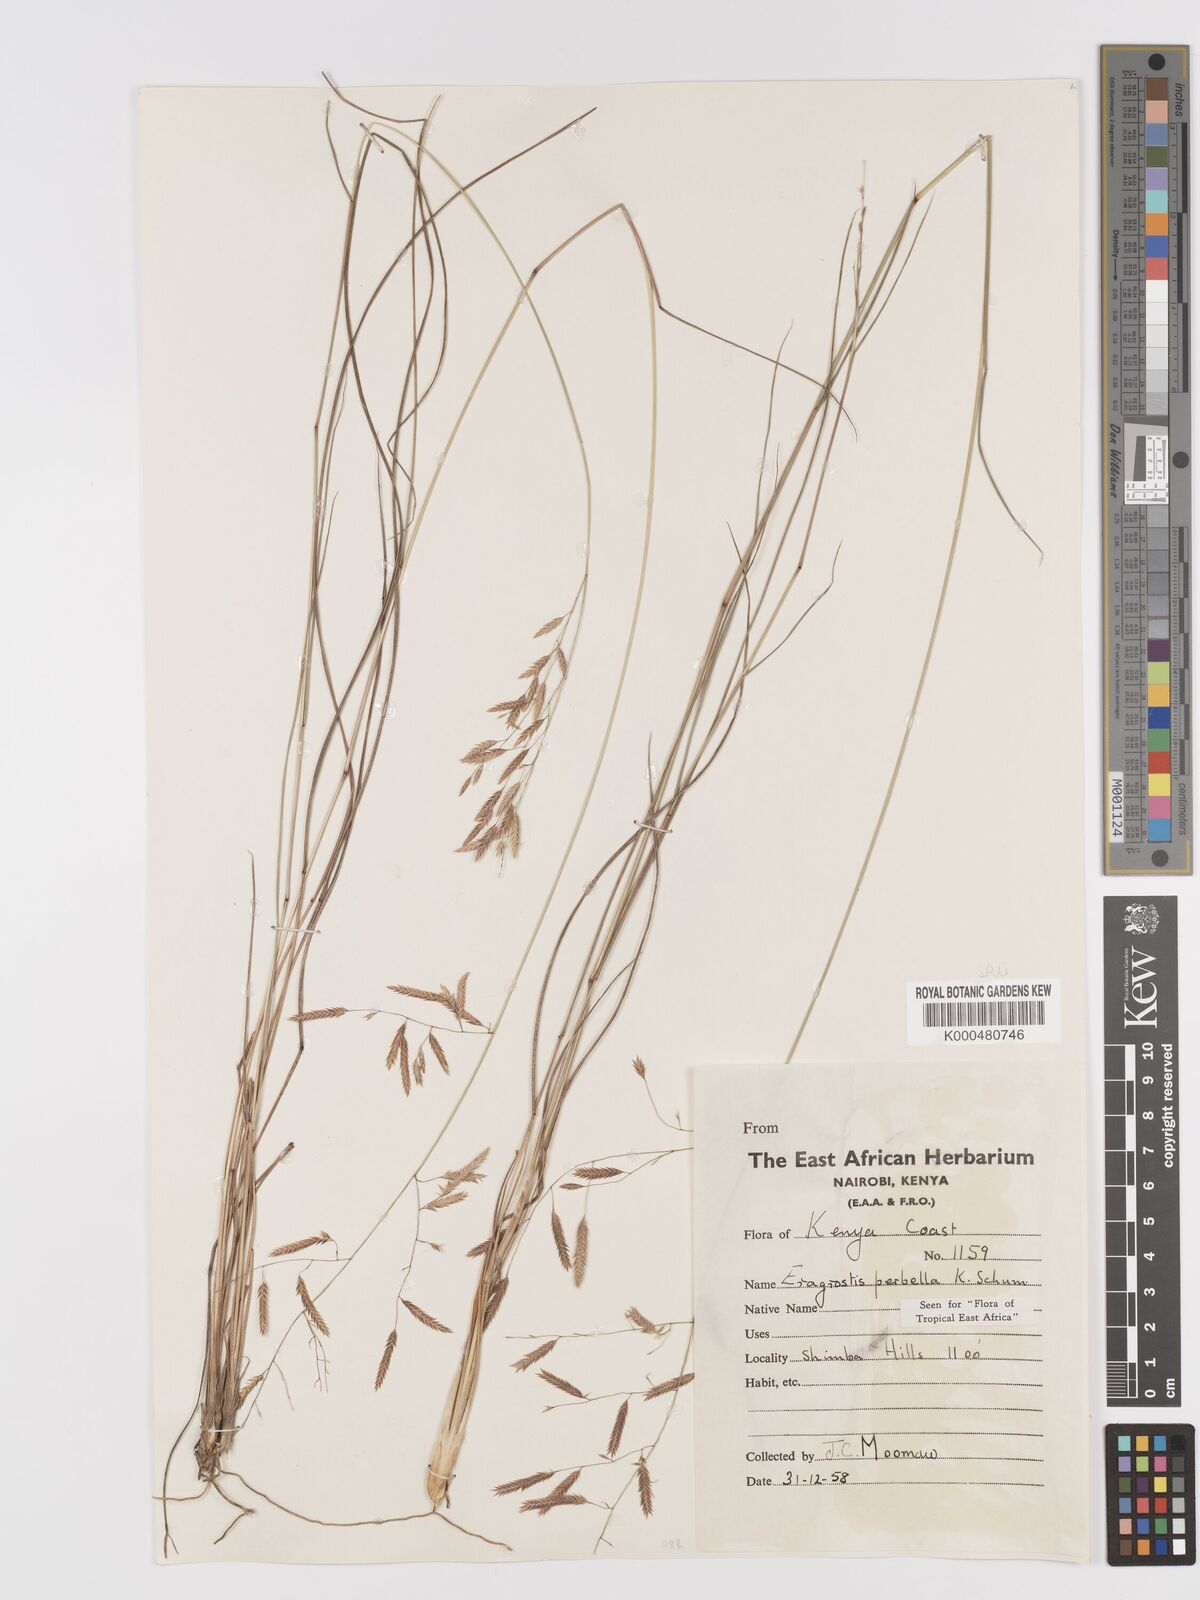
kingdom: Plantae
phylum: Tracheophyta
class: Liliopsida
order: Poales
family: Poaceae
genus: Eragrostis
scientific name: Eragrostis perbella
